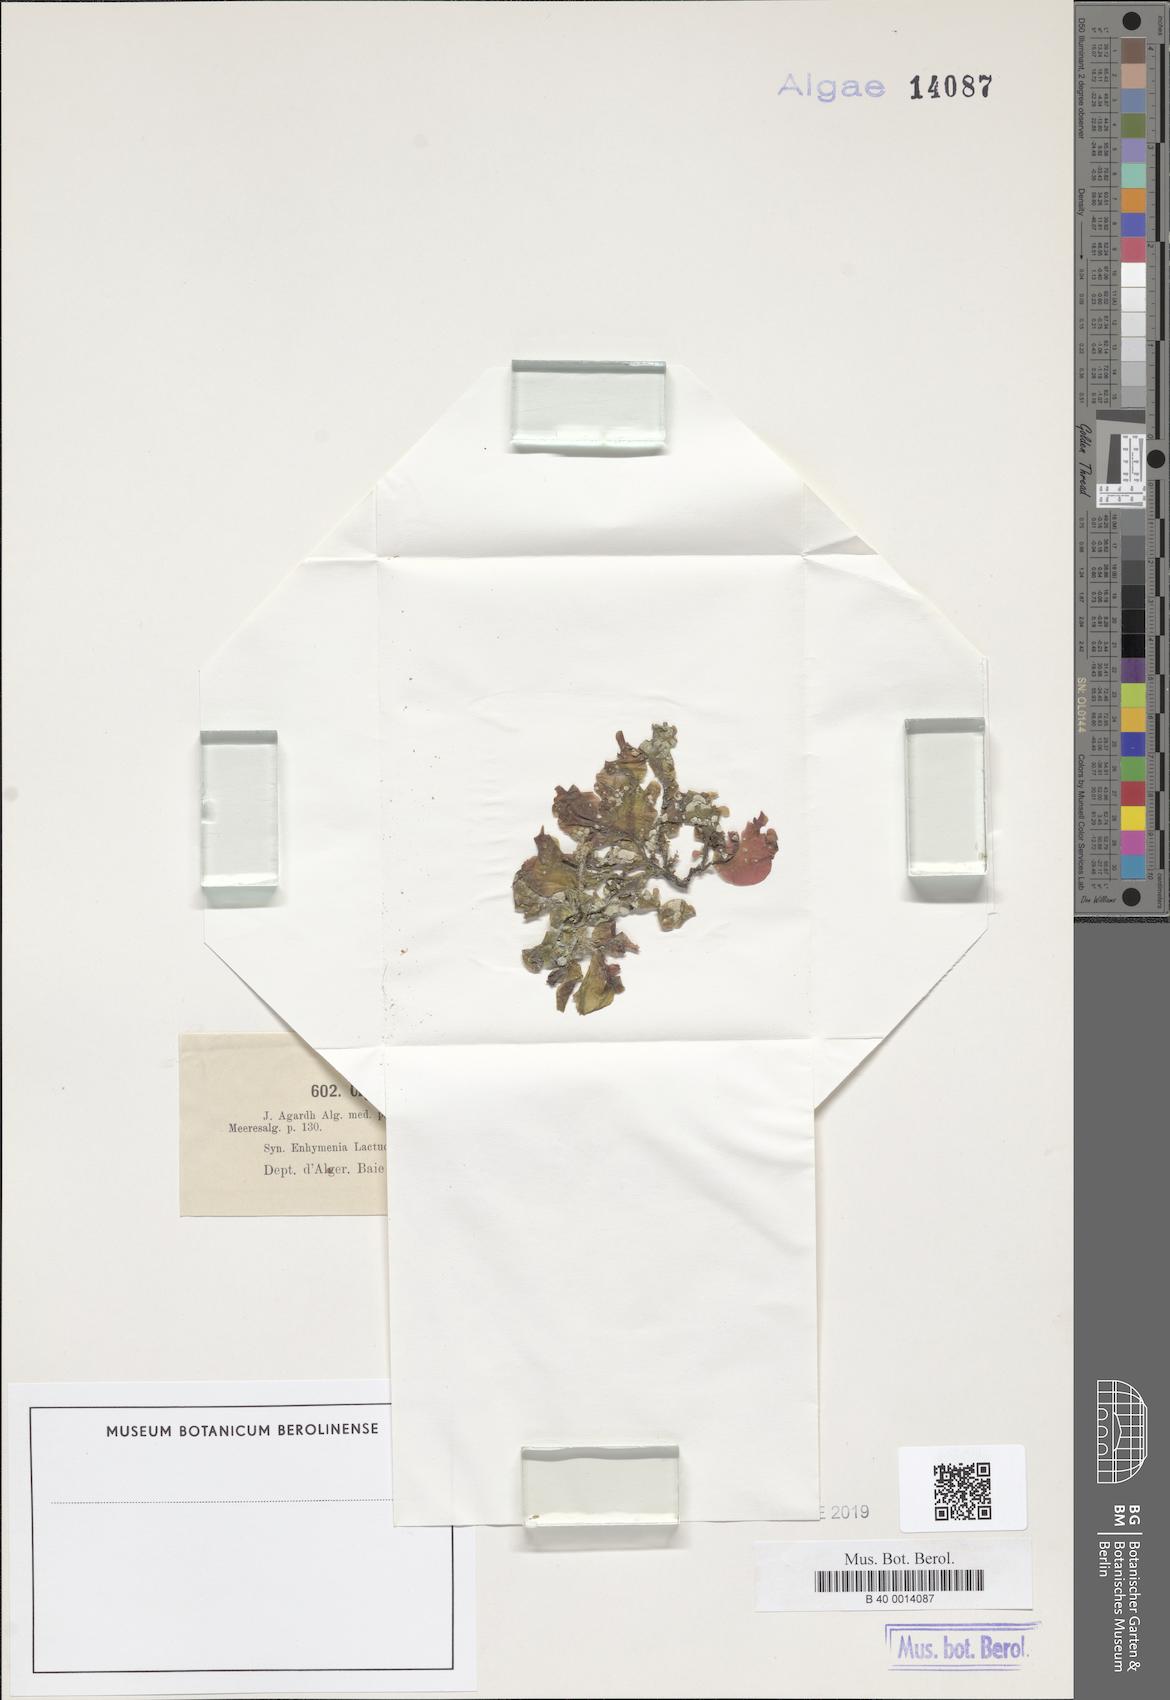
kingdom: Plantae
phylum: Rhodophyta
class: Florideophyceae
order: Halymeniales
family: Halymeniaceae
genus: Cryptonemia
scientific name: Cryptonemia lomation
